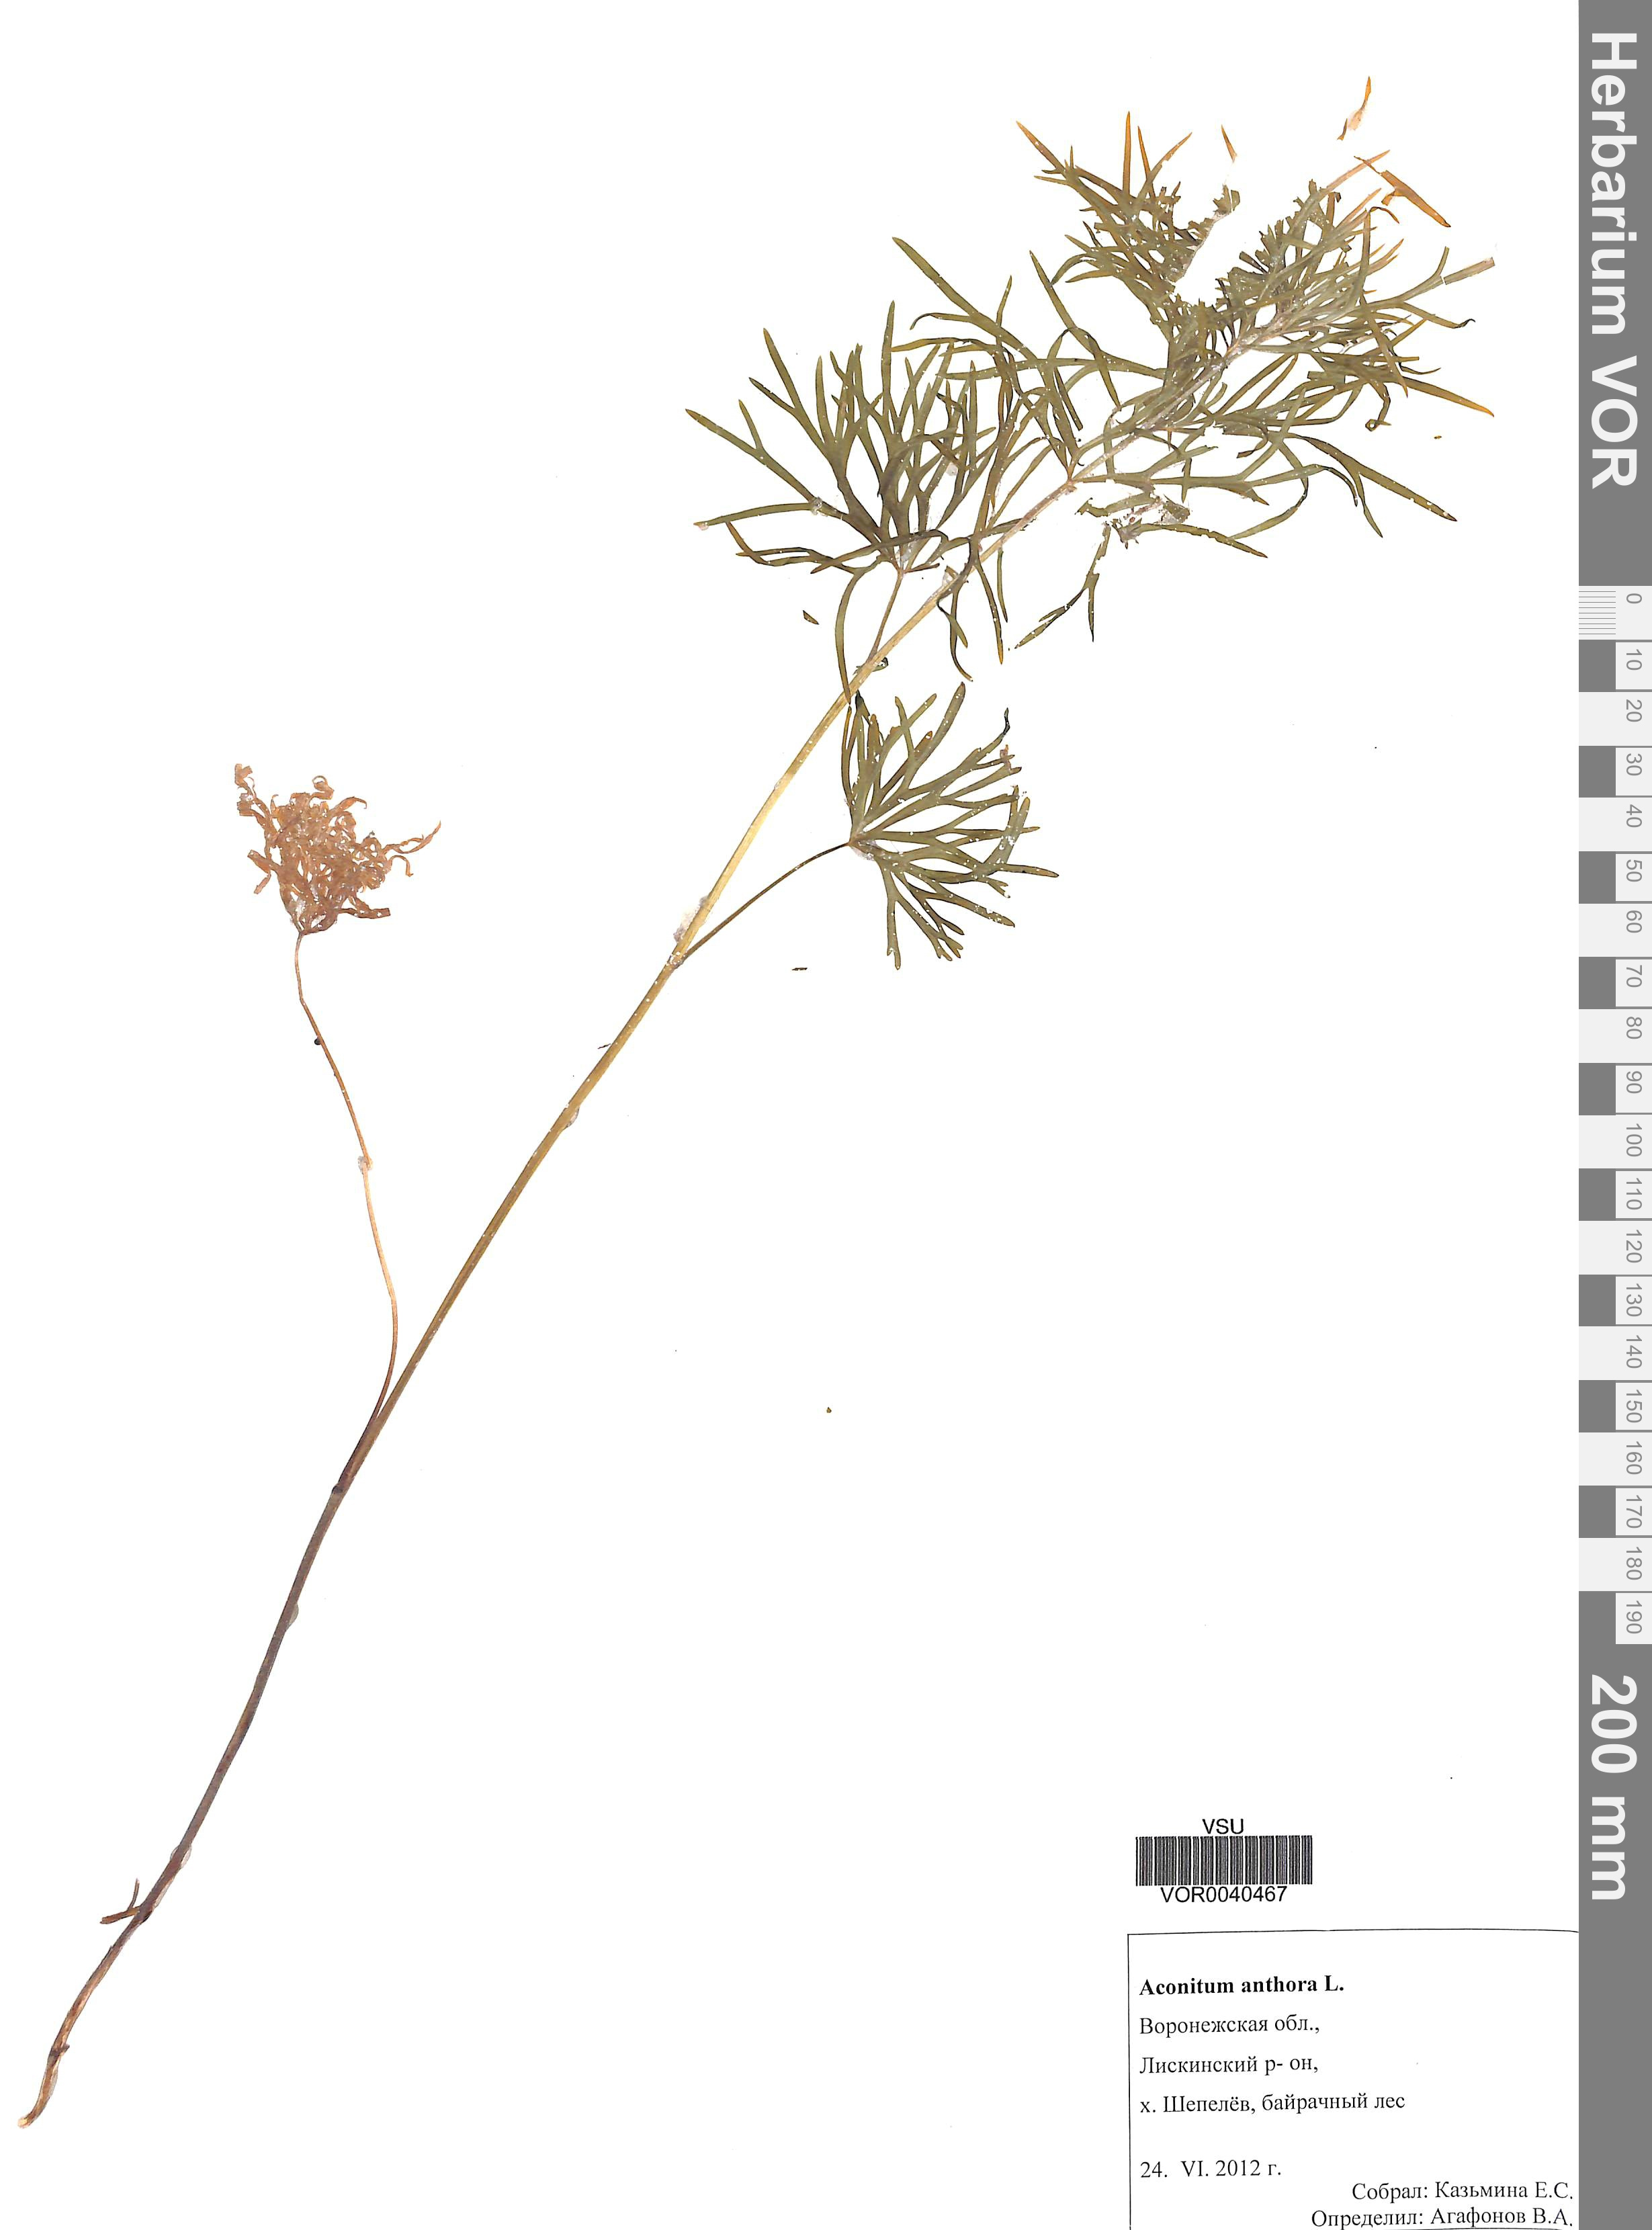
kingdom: Plantae
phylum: Tracheophyta
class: Magnoliopsida
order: Ranunculales
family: Ranunculaceae
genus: Aconitum
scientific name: Aconitum anthora
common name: Yellow monkshood
